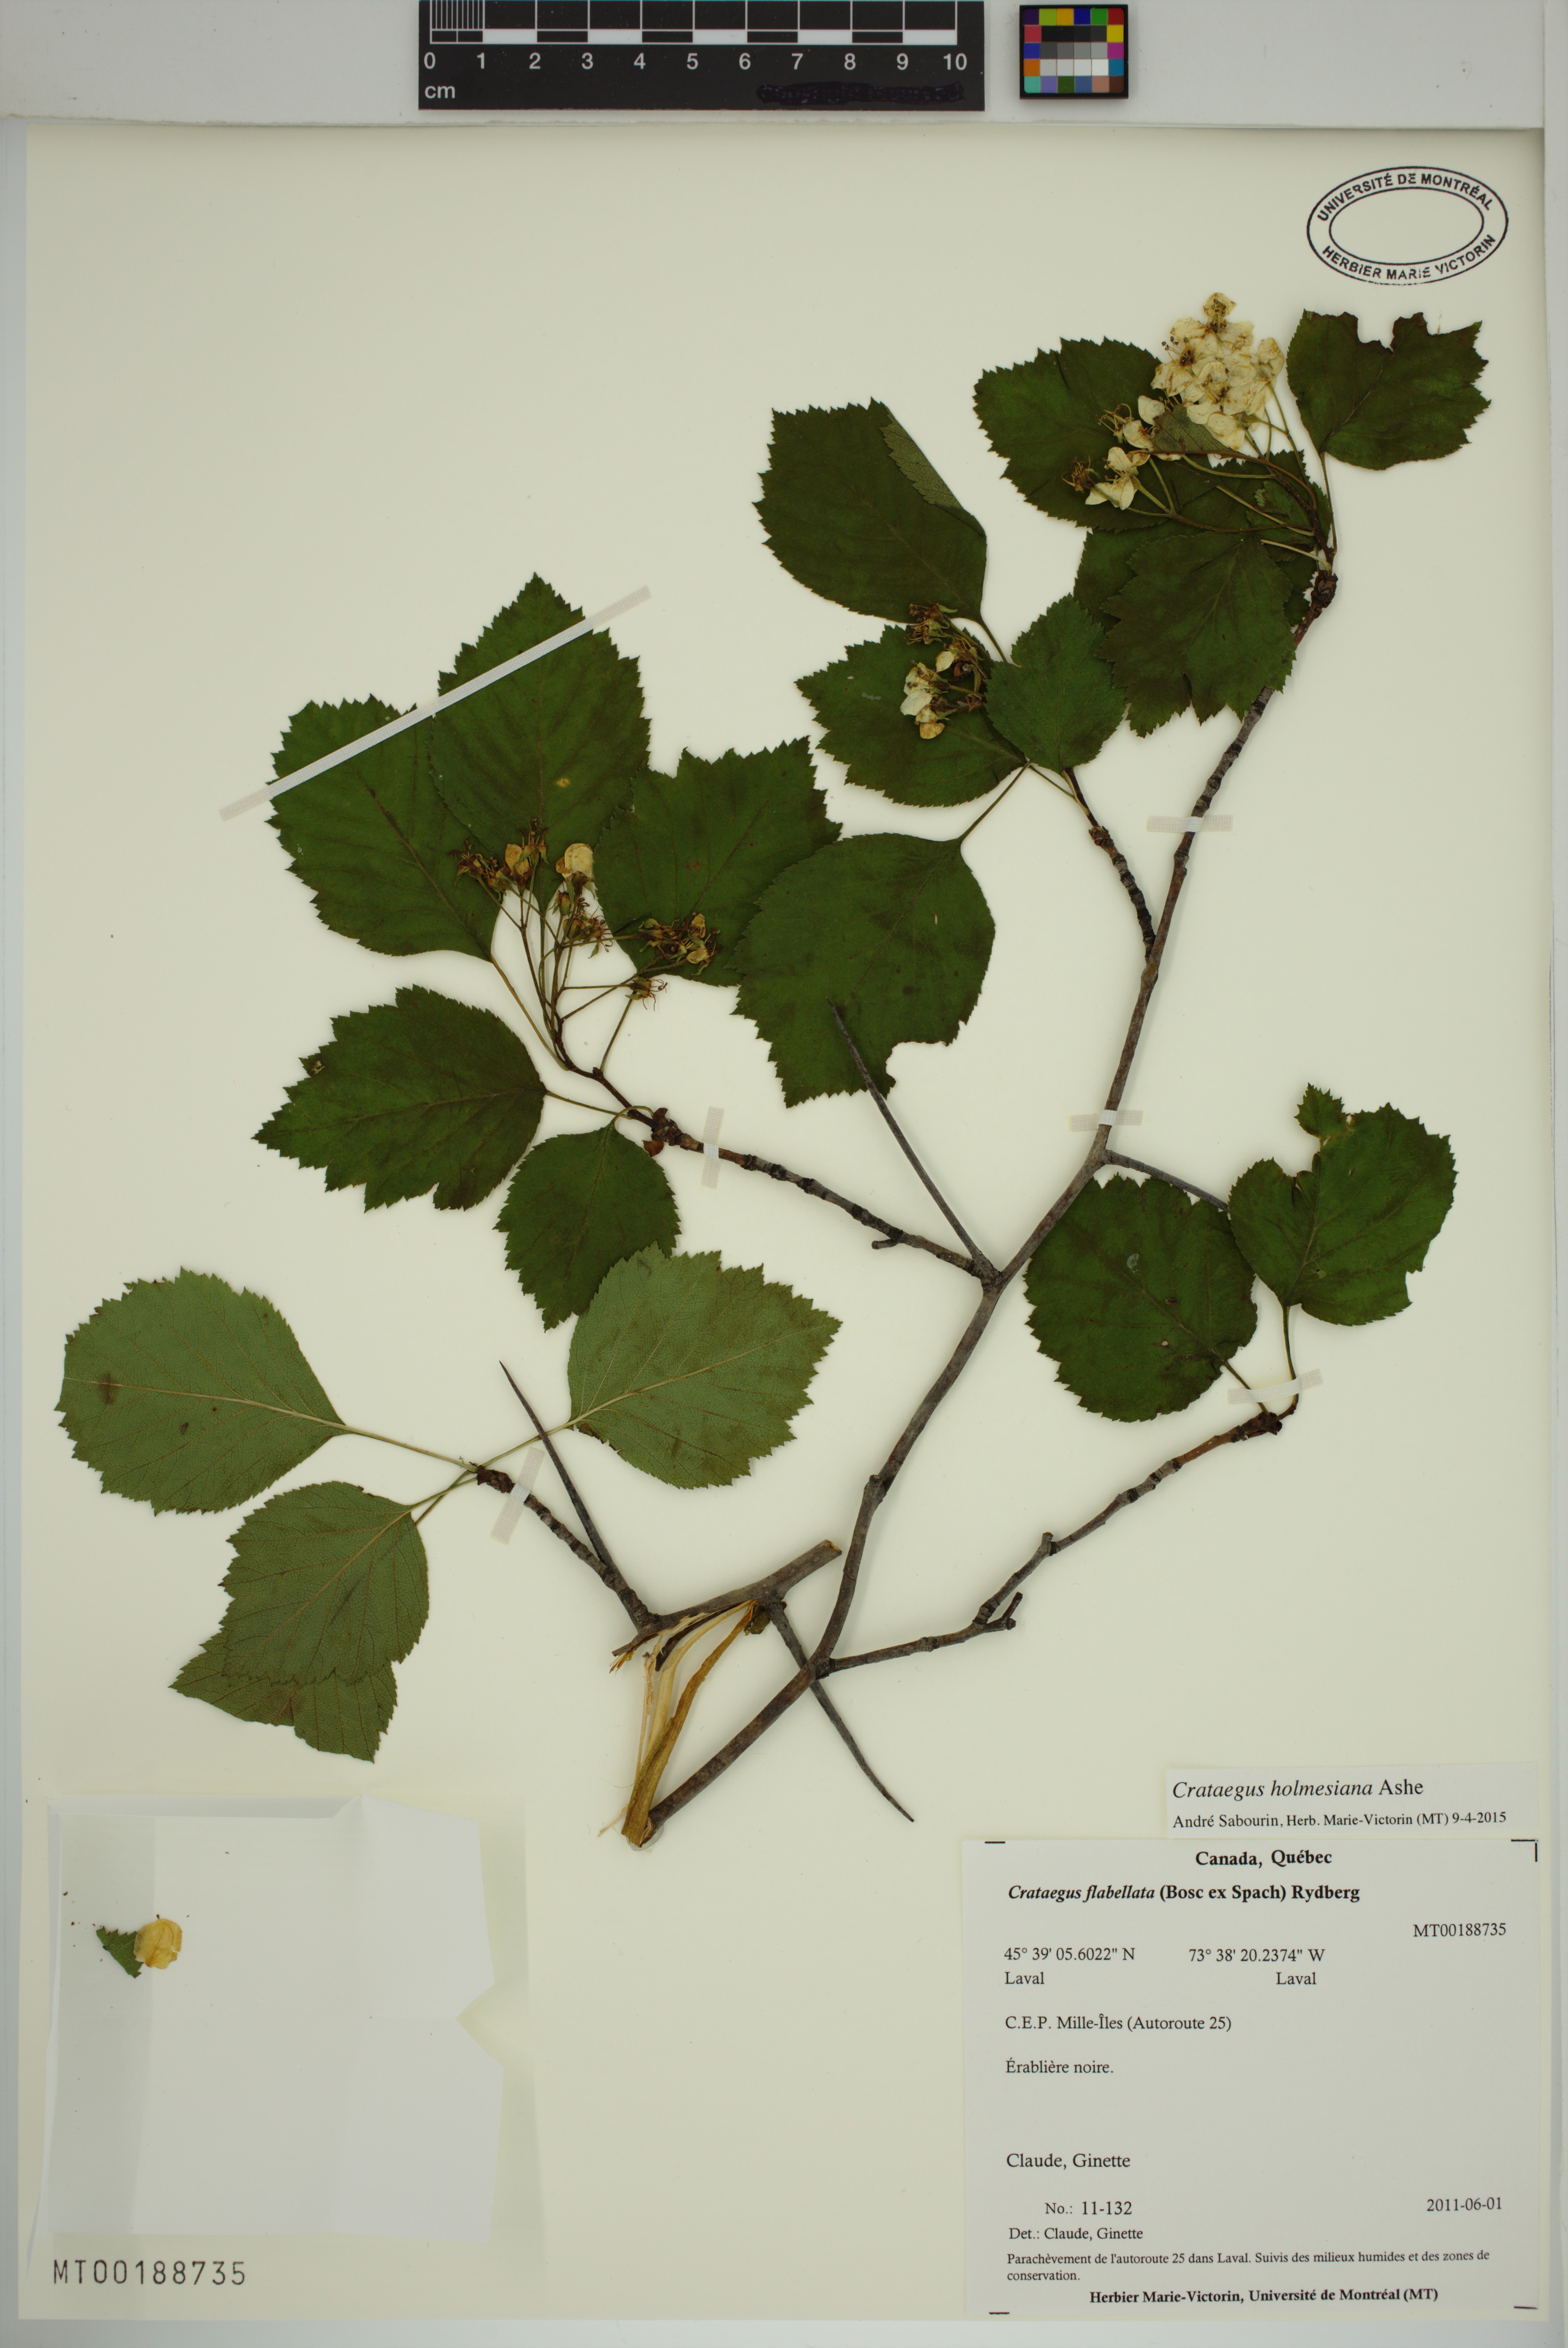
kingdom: Plantae
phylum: Tracheophyta
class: Magnoliopsida
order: Rosales
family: Rosaceae
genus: Crataegus
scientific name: Crataegus holmesiana
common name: Holmes' hawthorn
